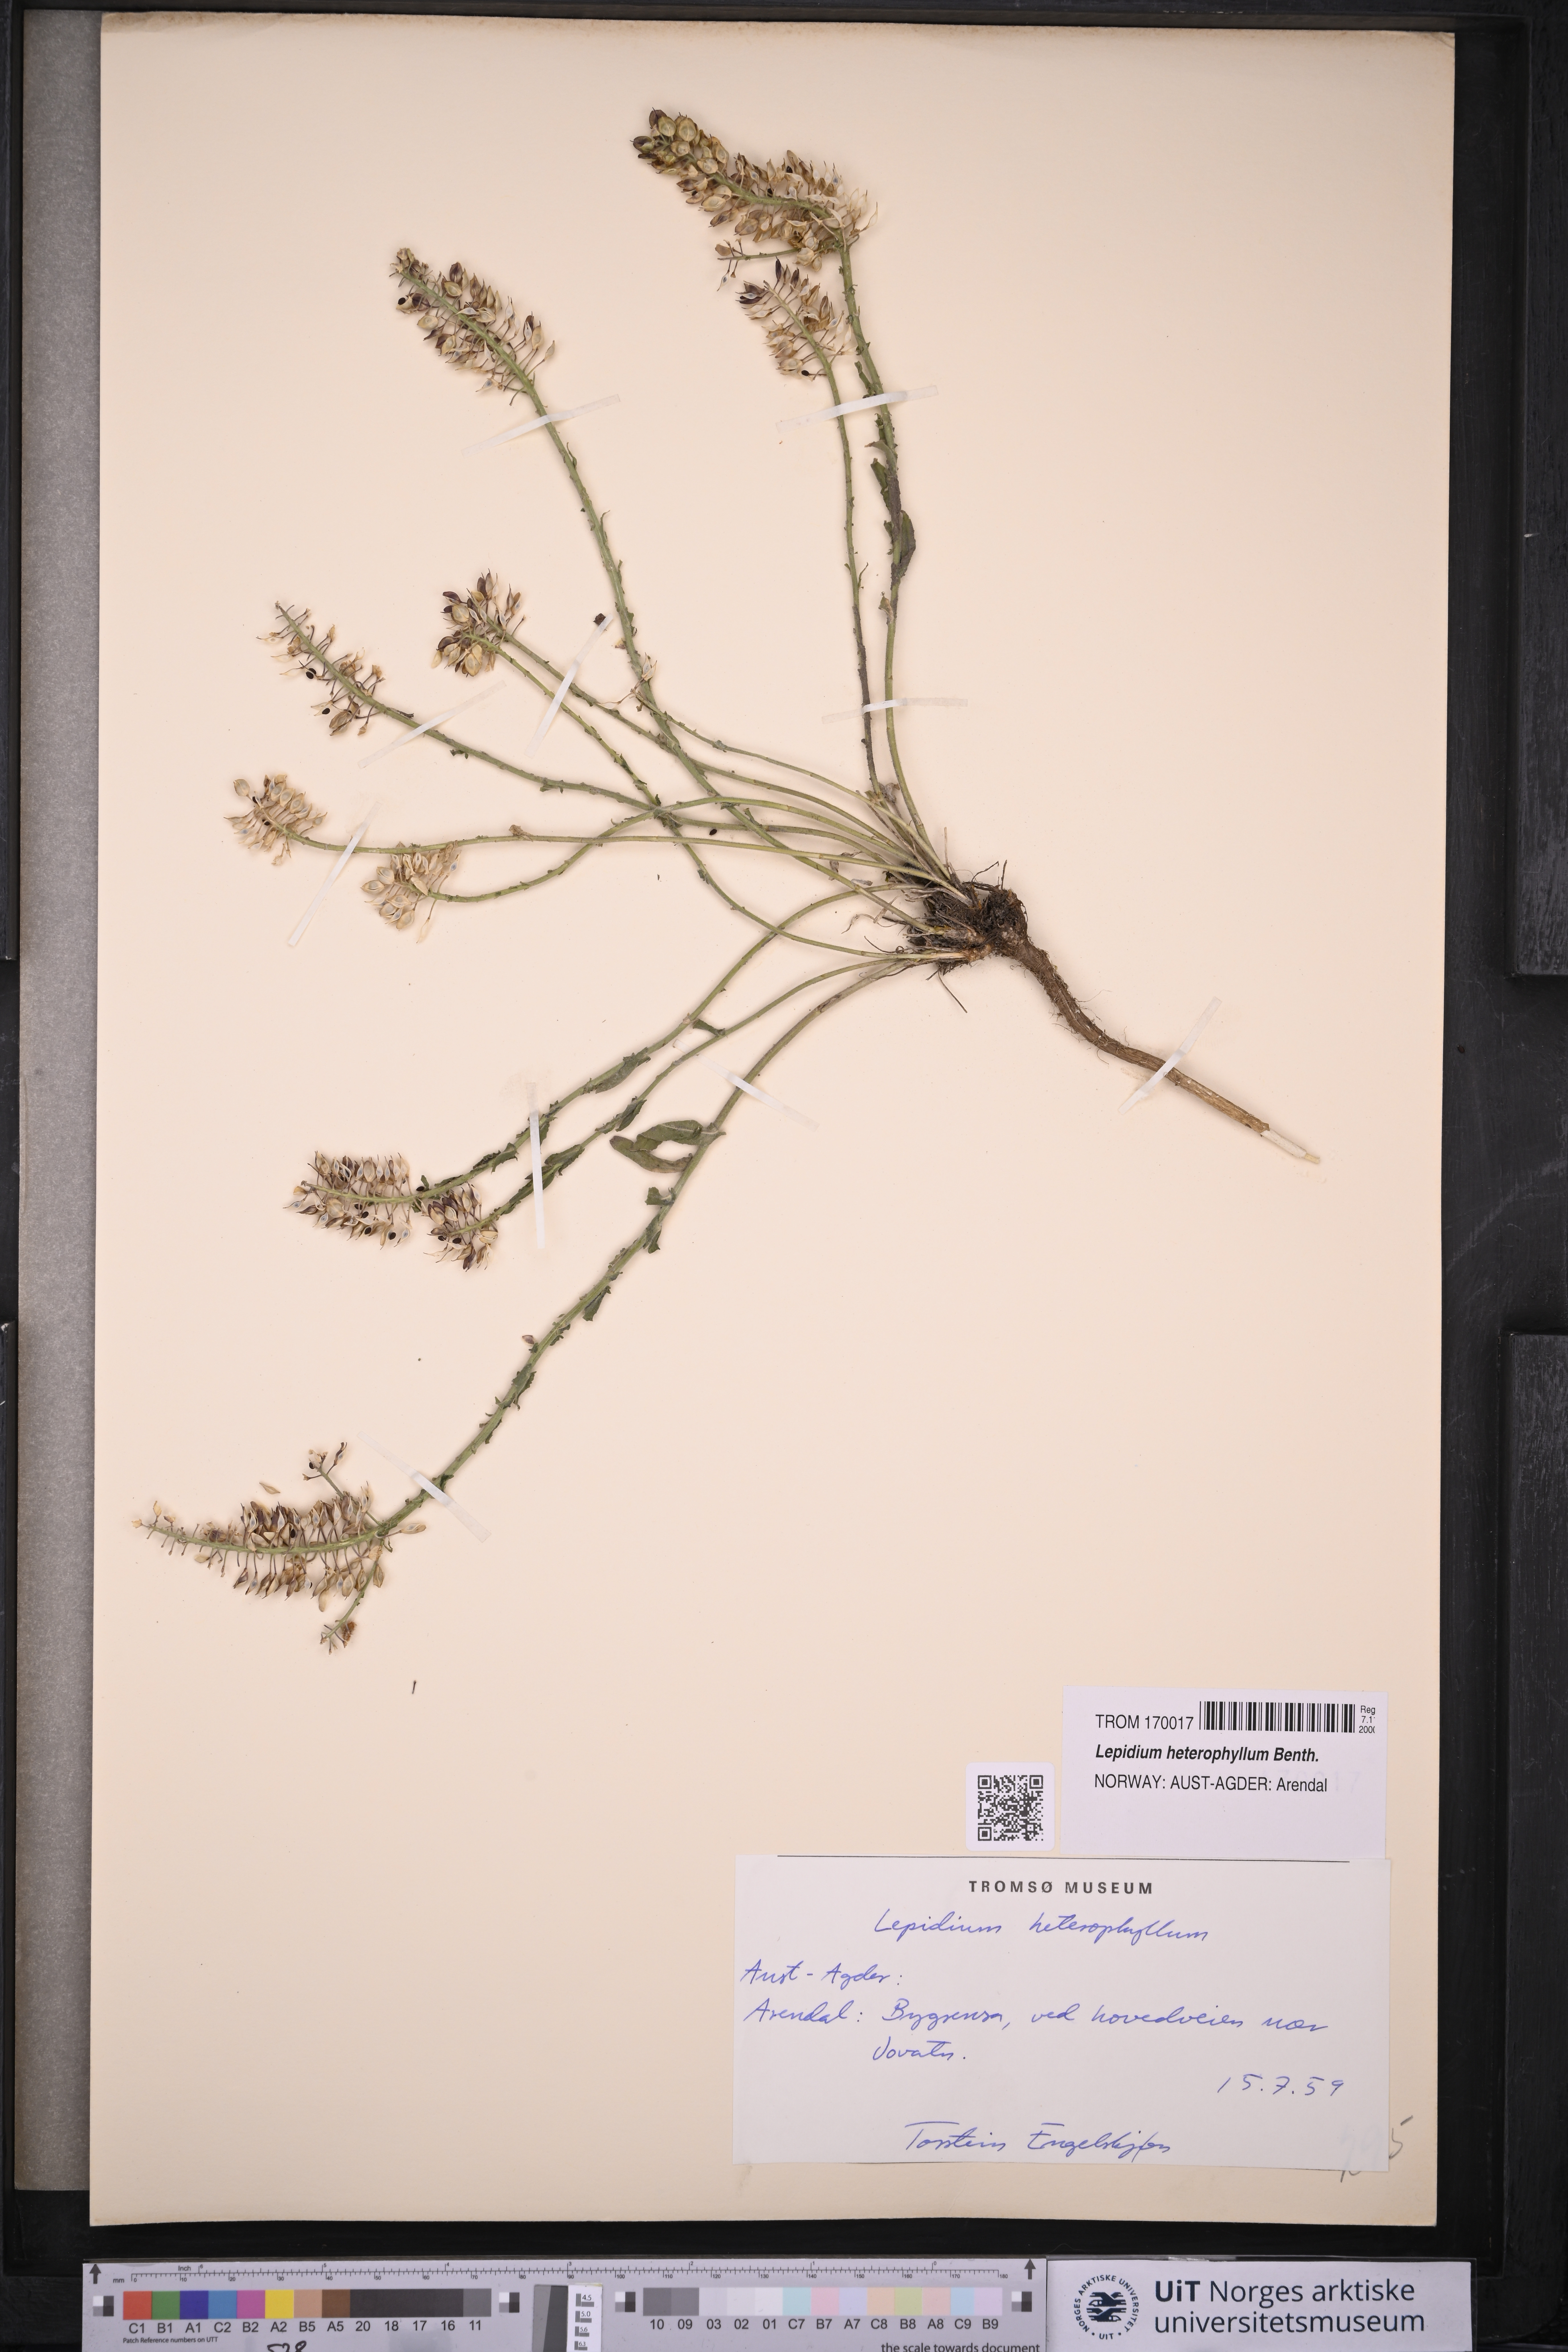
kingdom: Plantae
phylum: Tracheophyta
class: Magnoliopsida
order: Brassicales
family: Brassicaceae
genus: Lepidium
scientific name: Lepidium heterophyllum
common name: Smith's pepperwort
